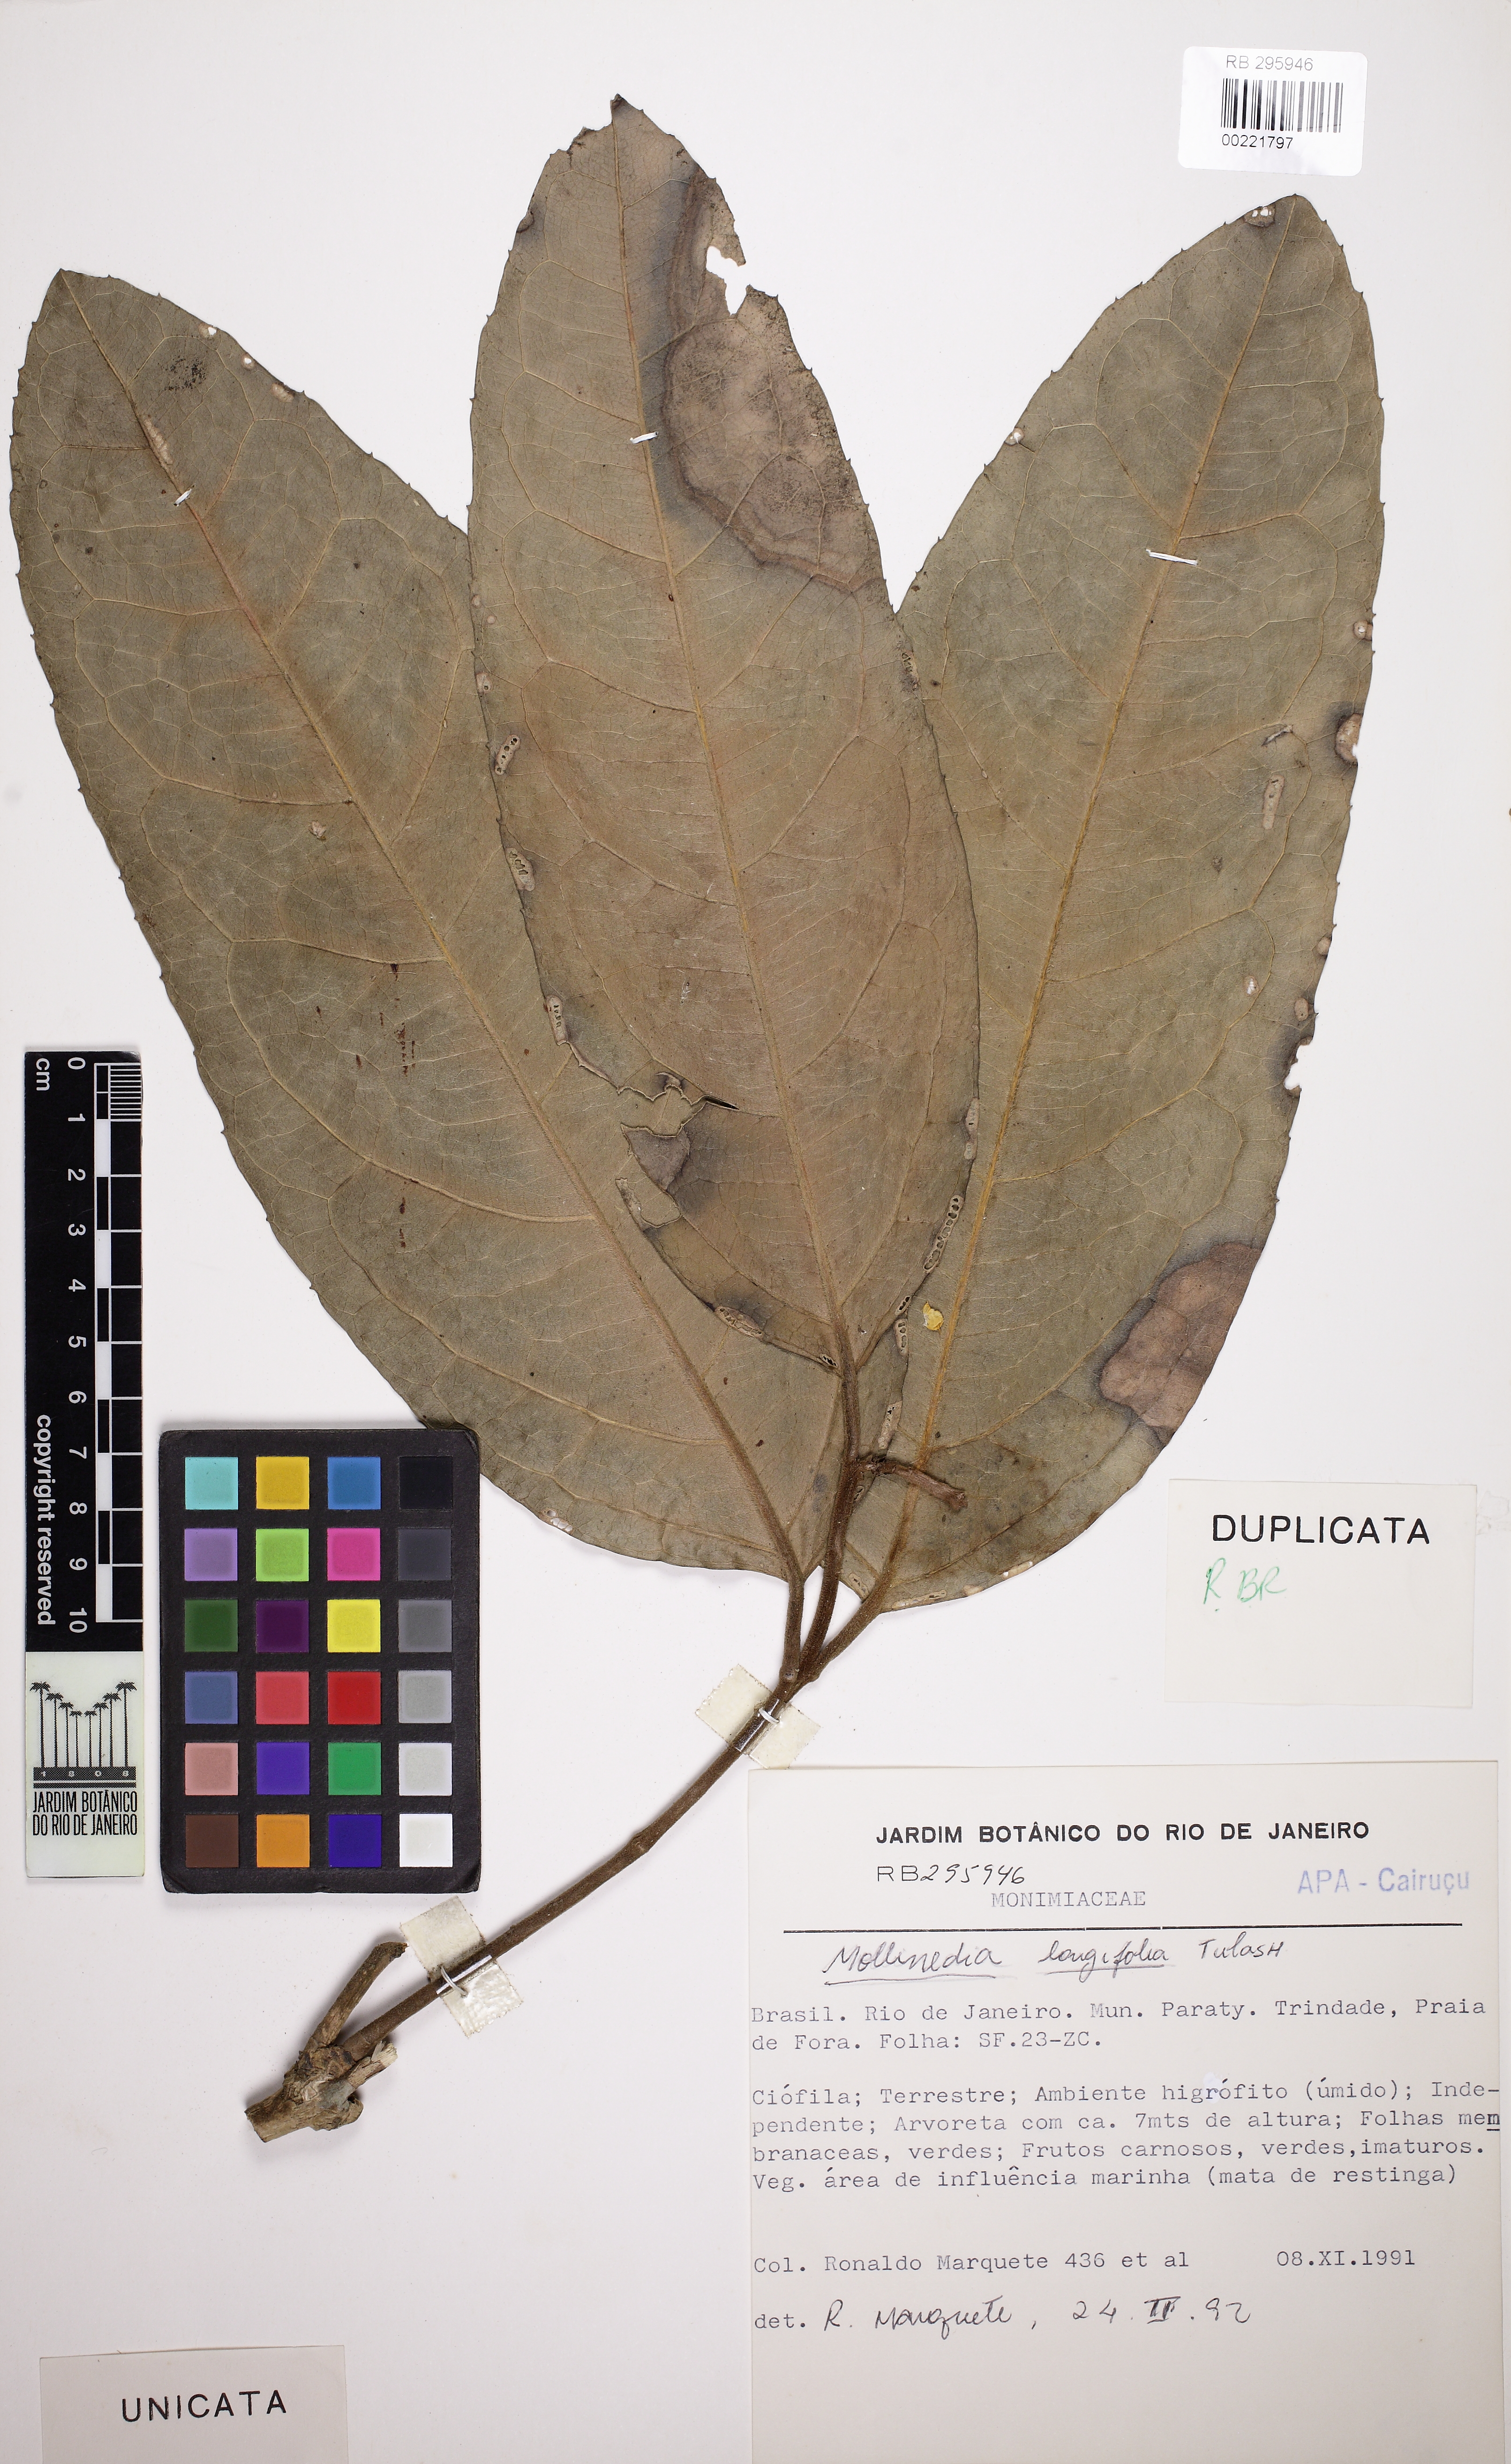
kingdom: Plantae
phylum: Tracheophyta
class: Magnoliopsida
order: Laurales
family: Monimiaceae
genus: Mollinedia
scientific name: Mollinedia longifolia
